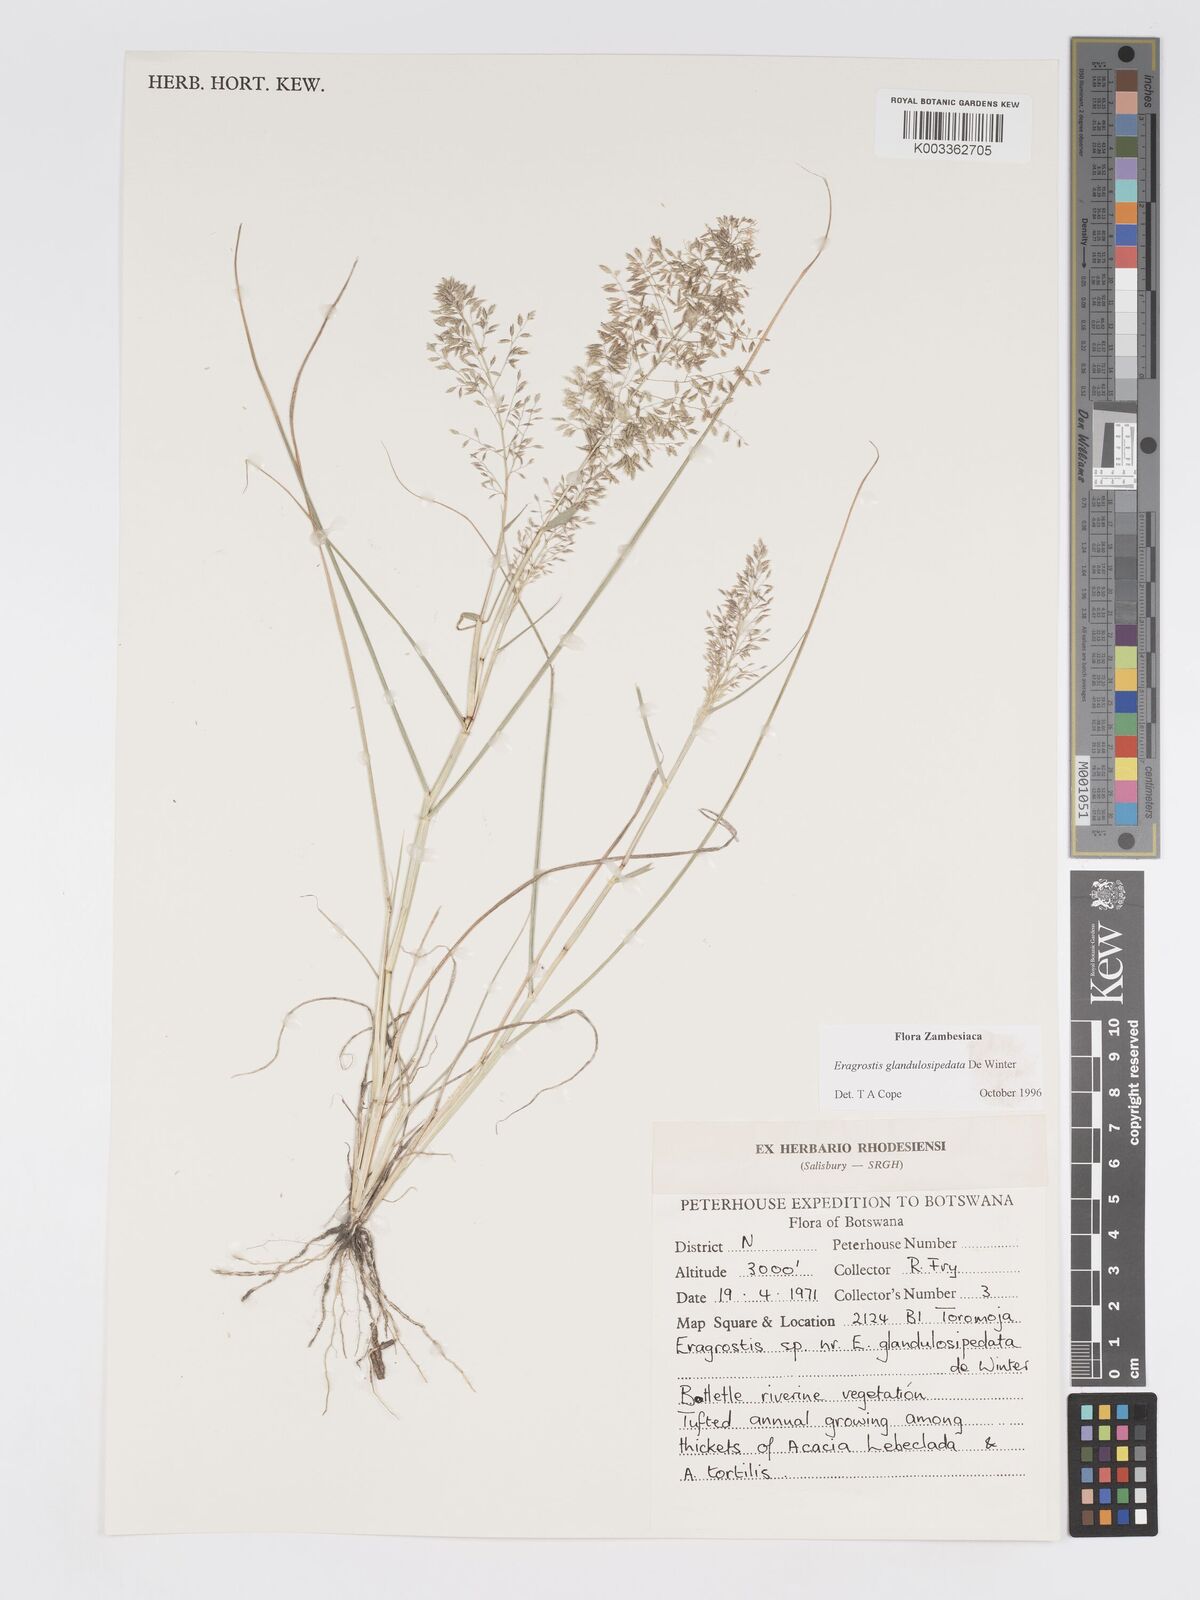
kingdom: Plantae
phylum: Tracheophyta
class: Liliopsida
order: Poales
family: Poaceae
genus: Eragrostis
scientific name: Eragrostis glandulosipedata
